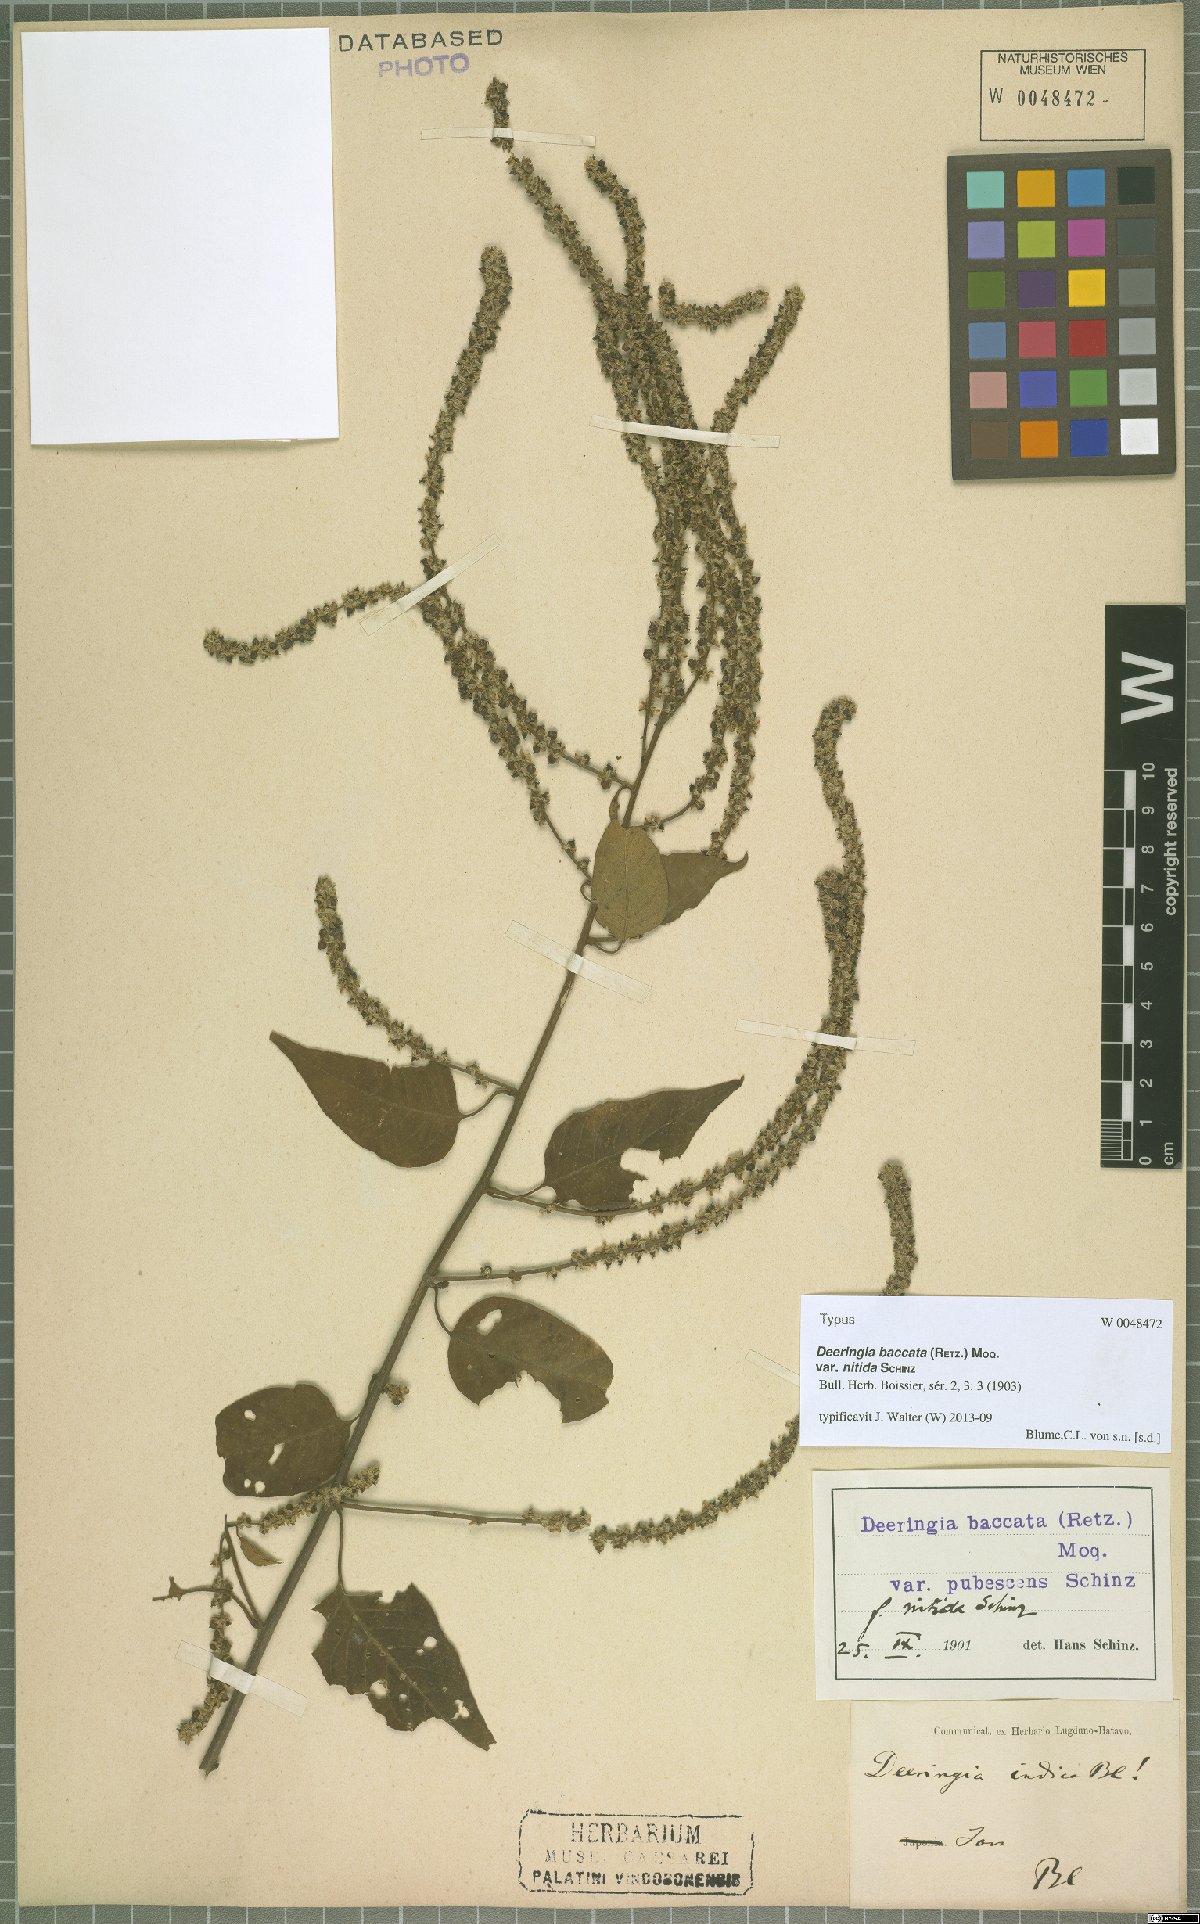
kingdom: Plantae
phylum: Tracheophyta
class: Magnoliopsida
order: Caryophyllales
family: Amaranthaceae
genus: Deeringia
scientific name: Deeringia amaranthoides
